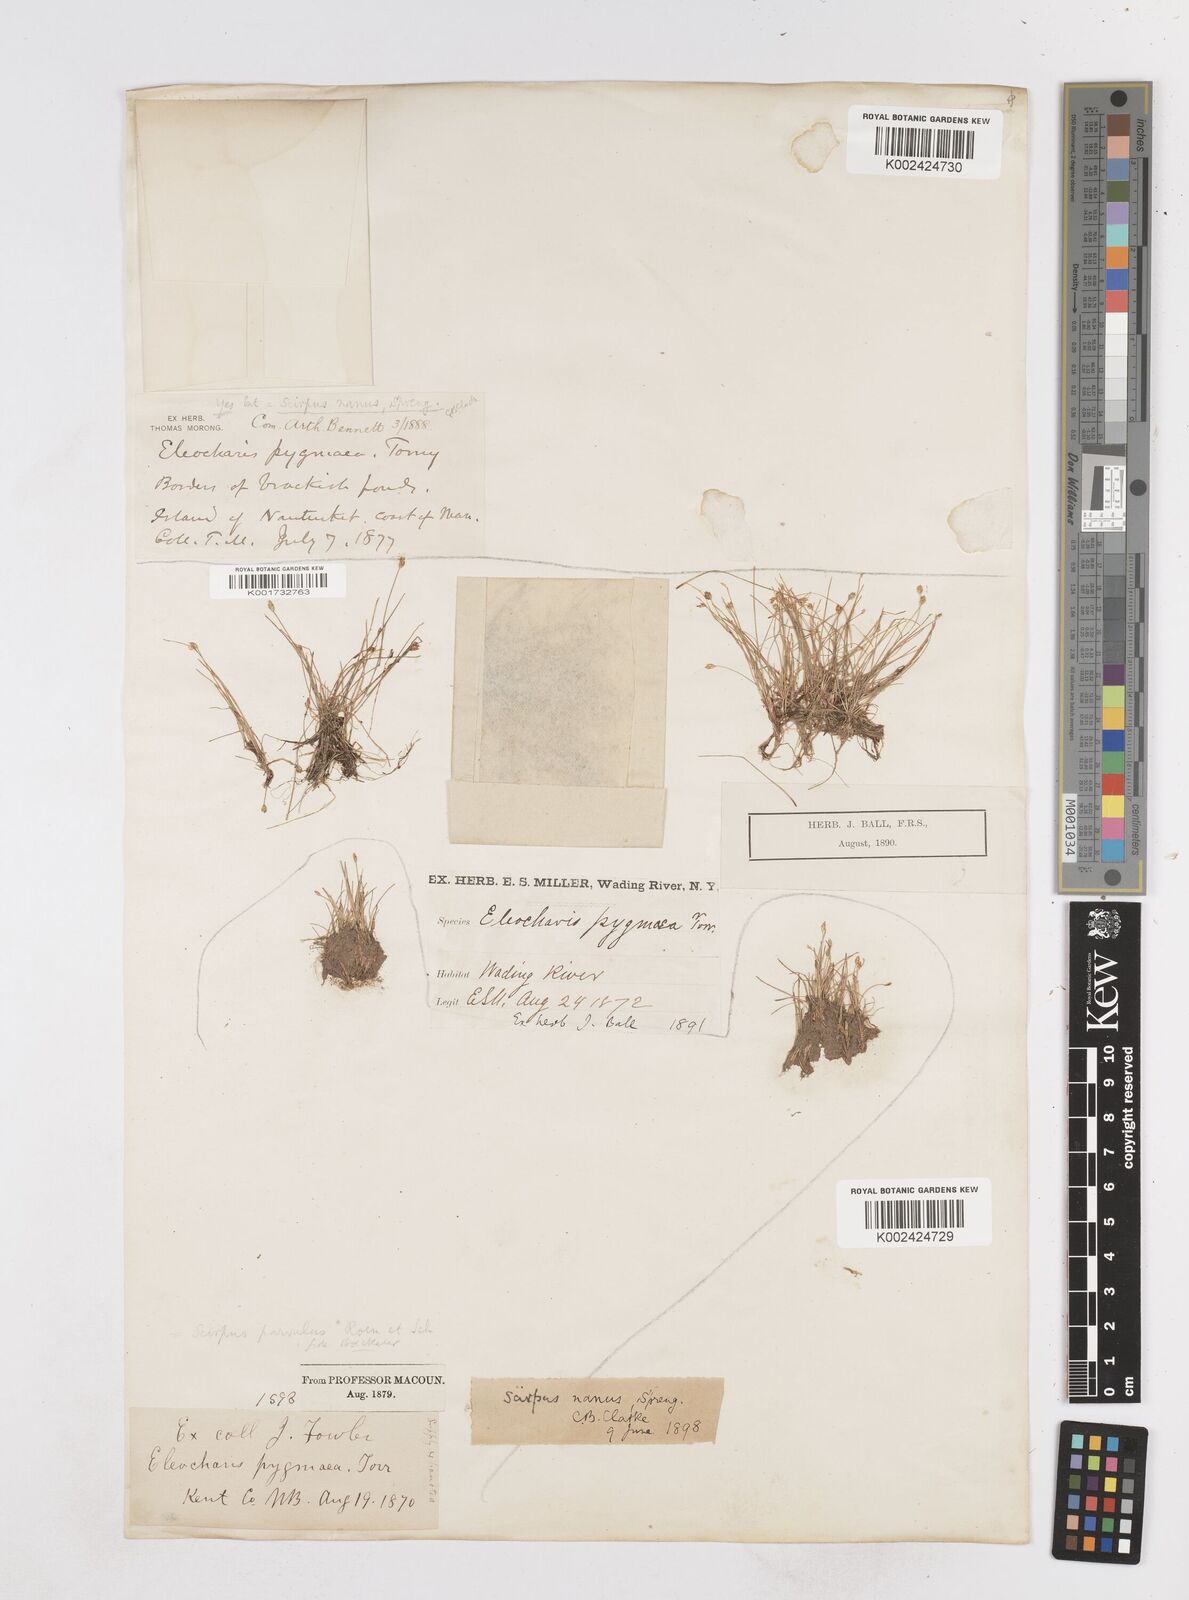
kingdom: Plantae
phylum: Tracheophyta
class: Liliopsida
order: Poales
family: Cyperaceae
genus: Eleocharis
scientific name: Eleocharis parvula
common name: Dwarf spike-rush
